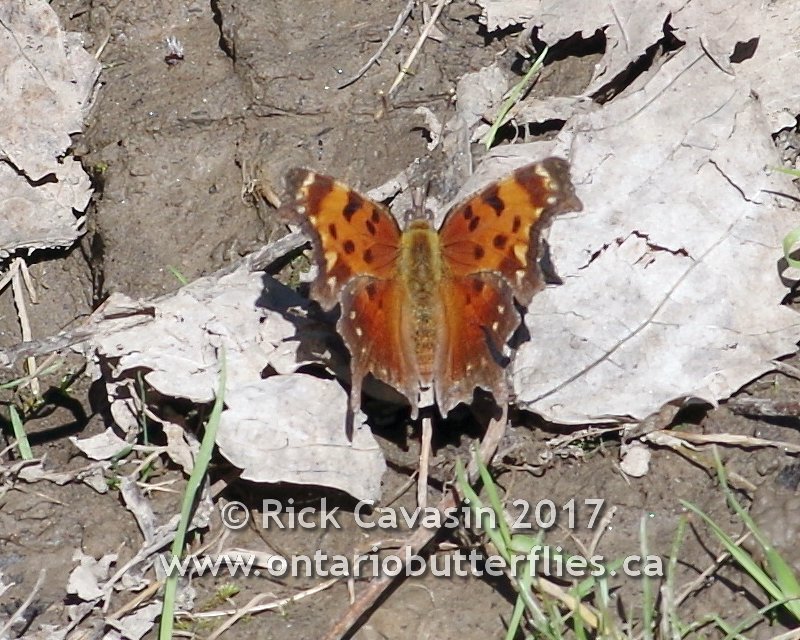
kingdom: Animalia
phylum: Arthropoda
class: Insecta
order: Lepidoptera
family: Nymphalidae
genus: Polygonia
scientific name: Polygonia progne
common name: Gray Comma
